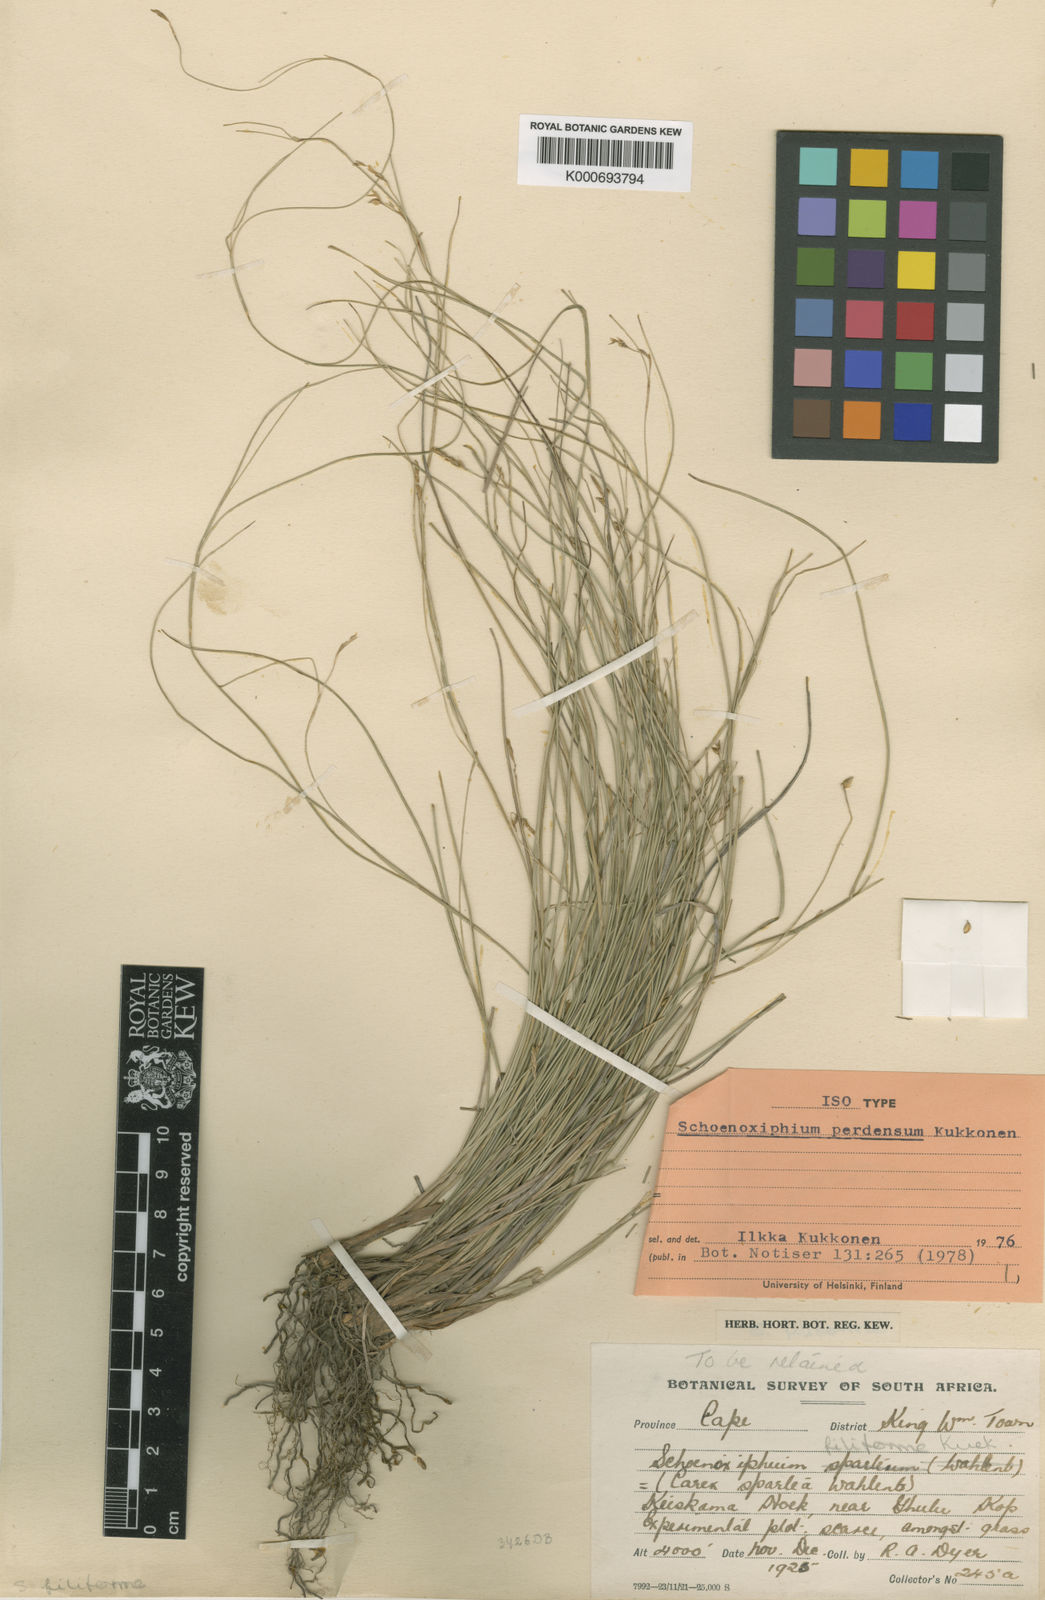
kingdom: Plantae
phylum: Tracheophyta
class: Liliopsida
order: Poales
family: Cyperaceae
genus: Carex
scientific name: Carex perdensa
